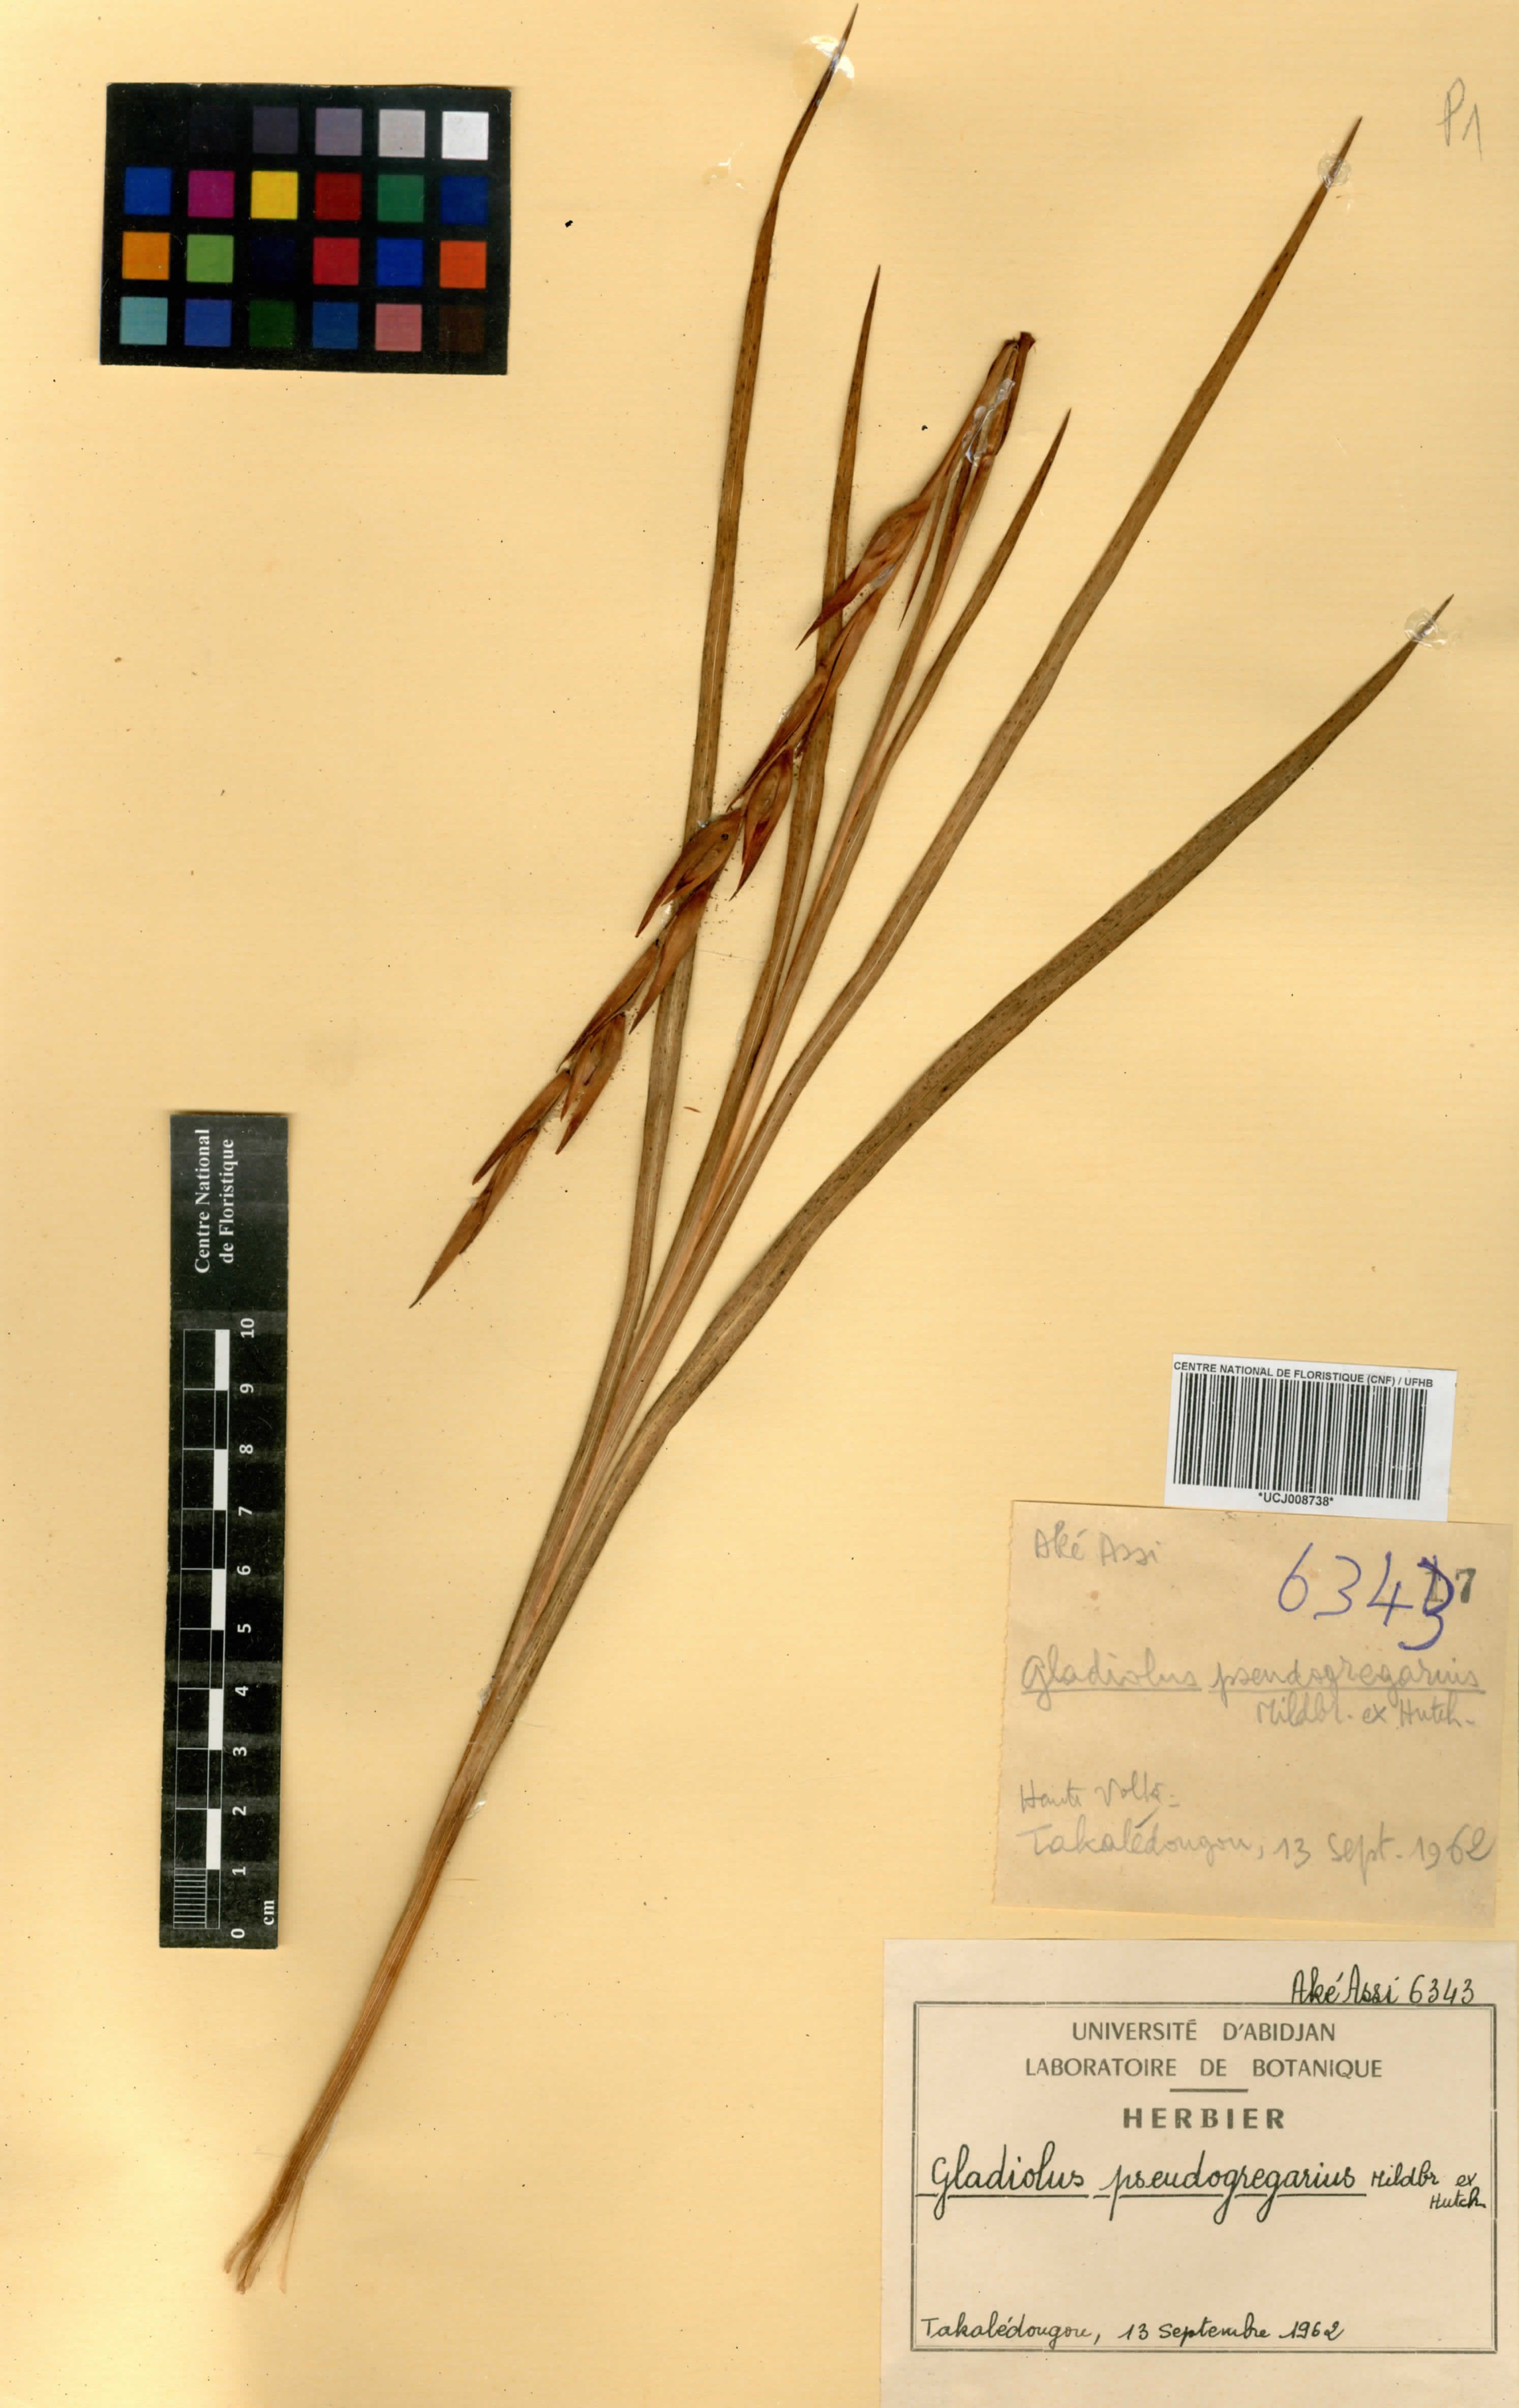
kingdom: Plantae
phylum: Tracheophyta
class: Liliopsida
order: Asparagales
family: Iridaceae
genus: Gladiolus
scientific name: Gladiolus gregarius
